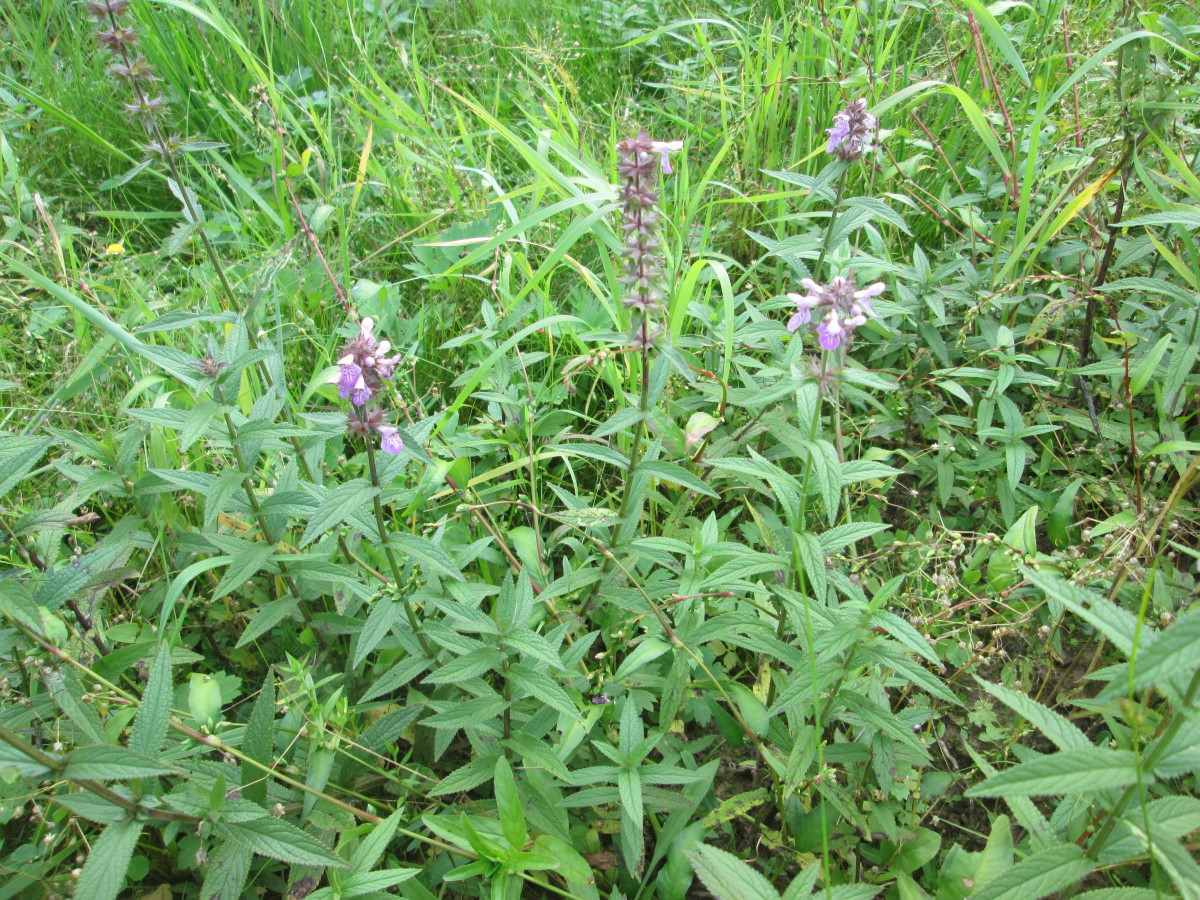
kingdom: Plantae
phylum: Tracheophyta
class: Magnoliopsida
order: Lamiales
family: Lamiaceae
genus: Stachys
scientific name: Stachys palustris
